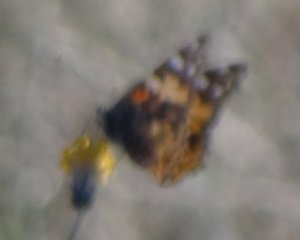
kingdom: Animalia
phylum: Arthropoda
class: Insecta
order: Lepidoptera
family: Nymphalidae
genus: Vanessa
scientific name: Vanessa cardui
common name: Painted Lady
